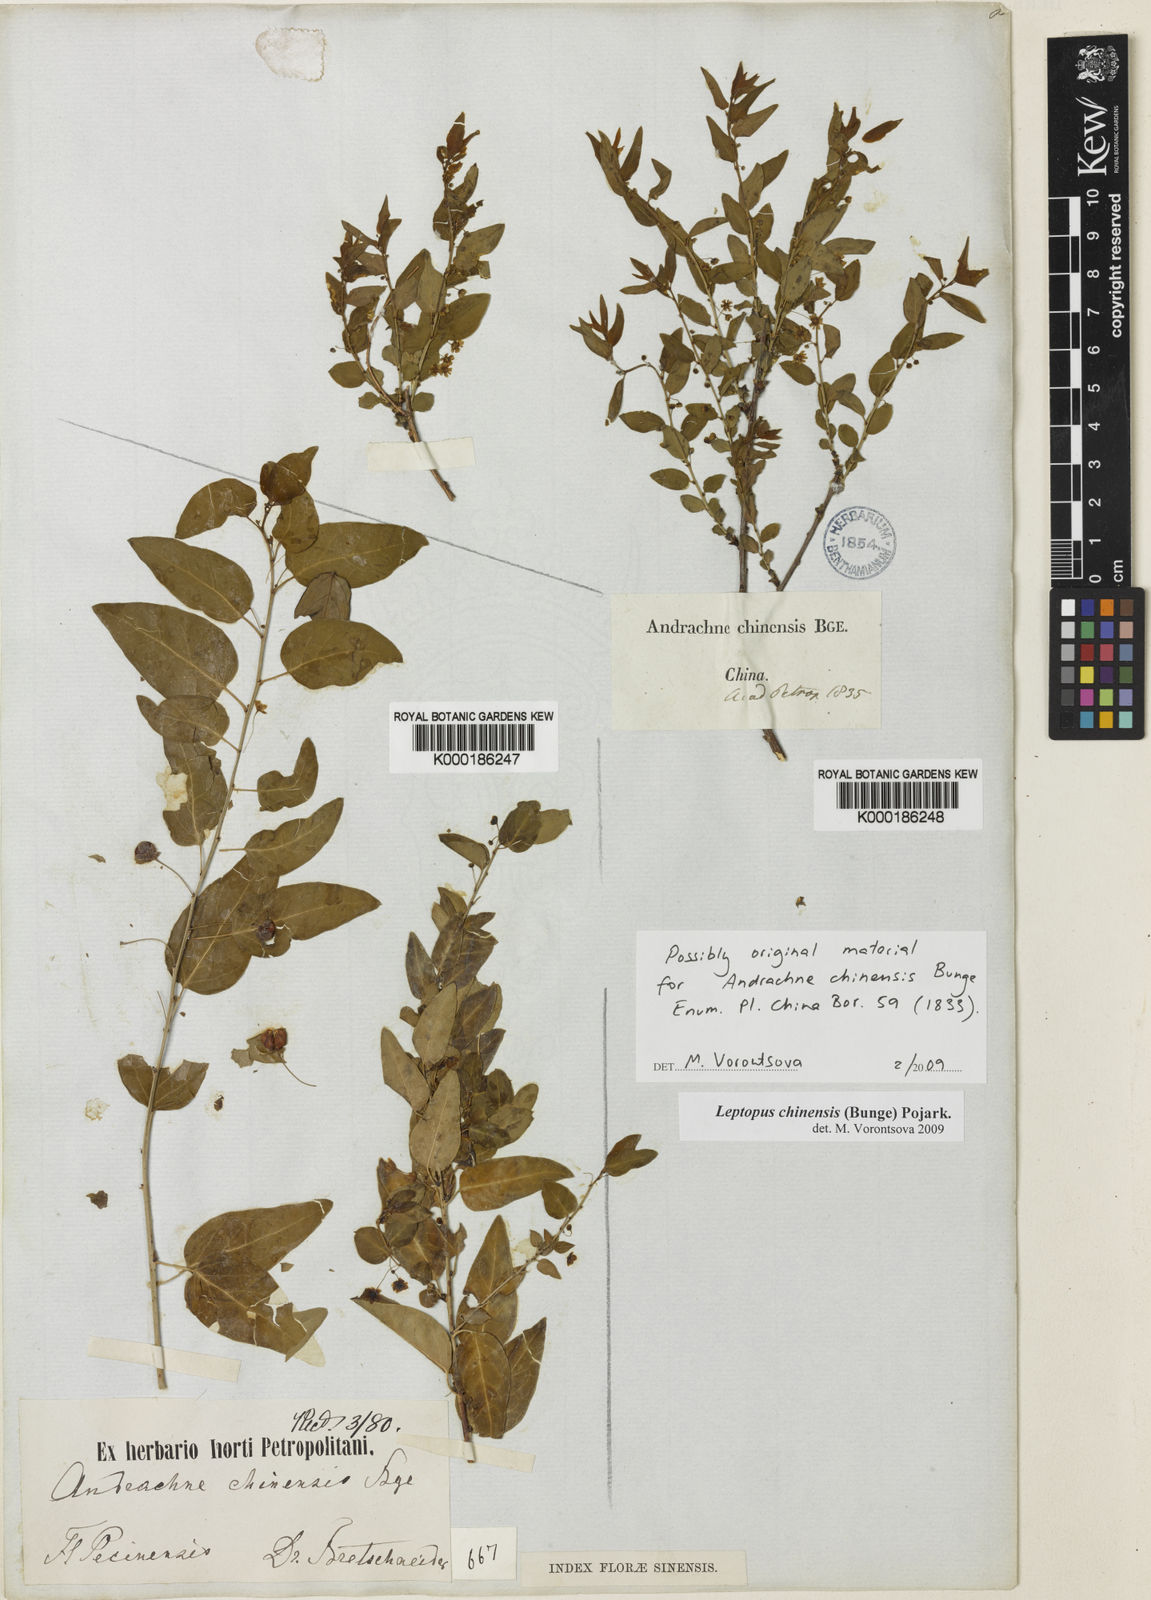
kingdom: Plantae
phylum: Tracheophyta
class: Magnoliopsida
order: Malpighiales
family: Phyllanthaceae
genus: Leptopus
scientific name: Leptopus chinensis
